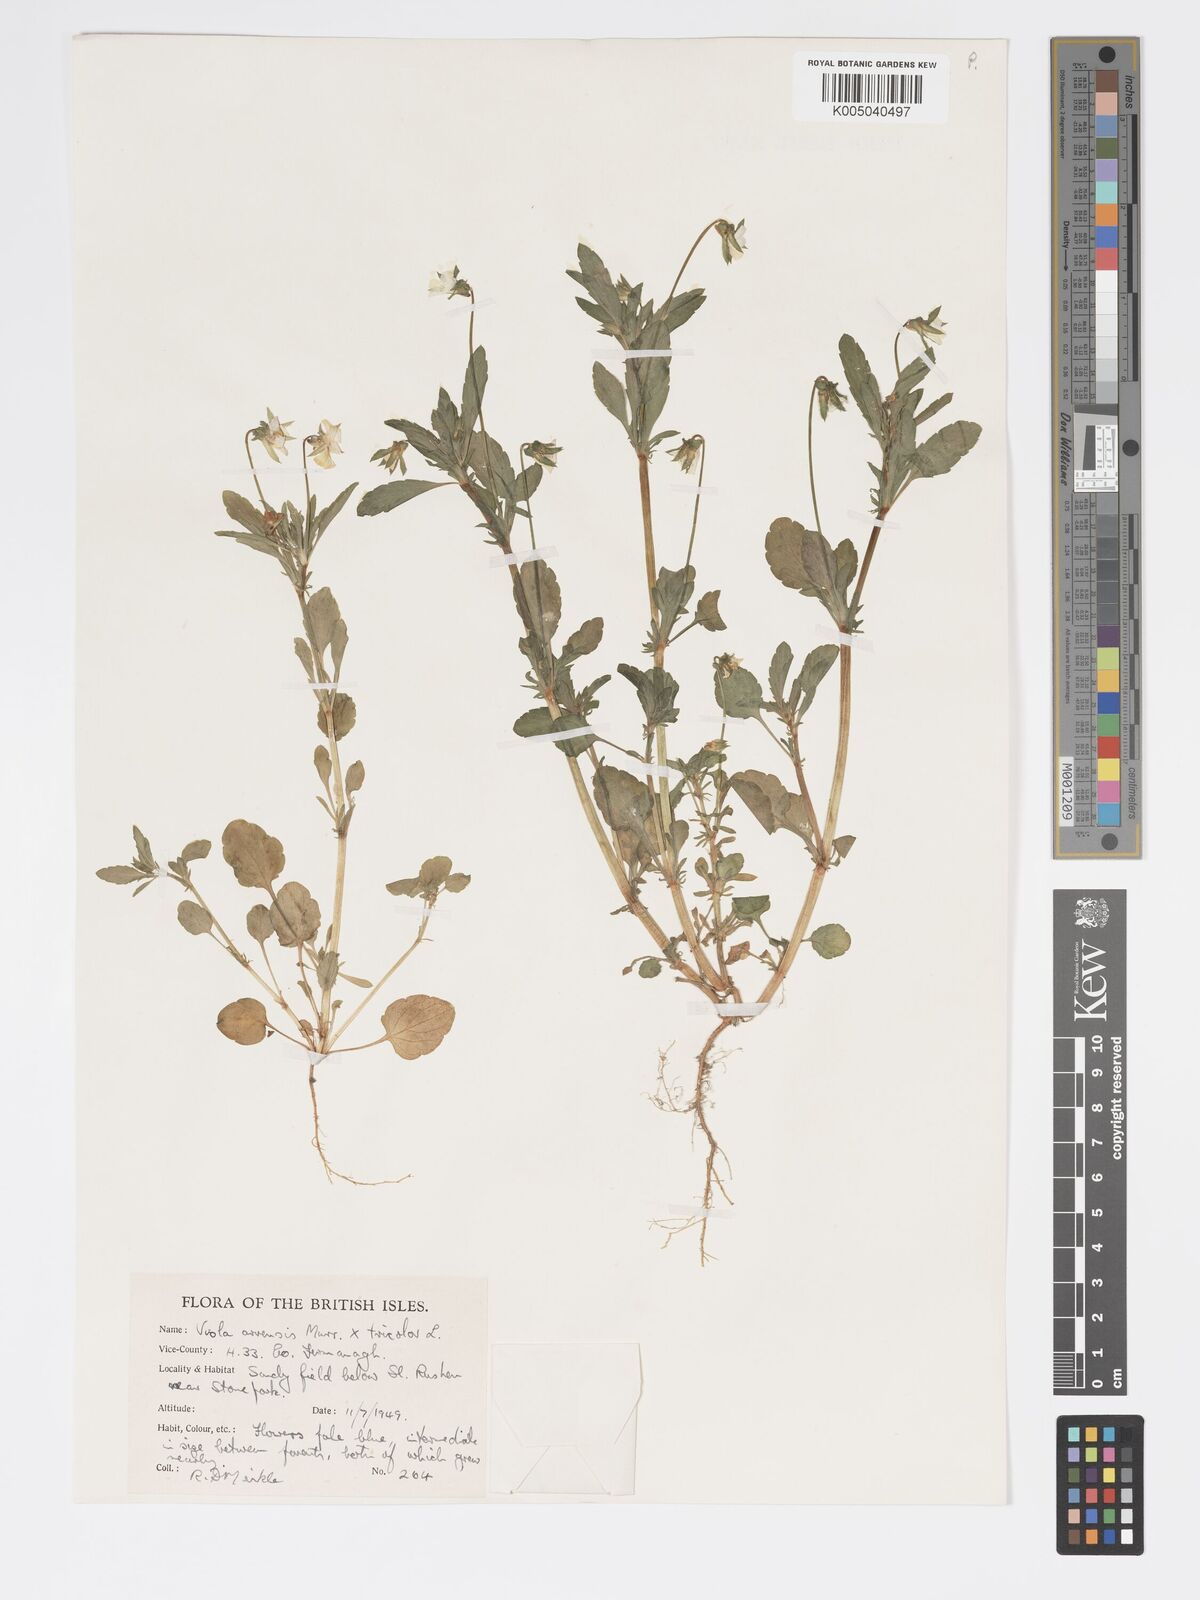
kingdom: Plantae
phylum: Tracheophyta
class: Magnoliopsida
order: Malpighiales
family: Violaceae
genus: Viola
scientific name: Viola arvensis
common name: Field pansy
